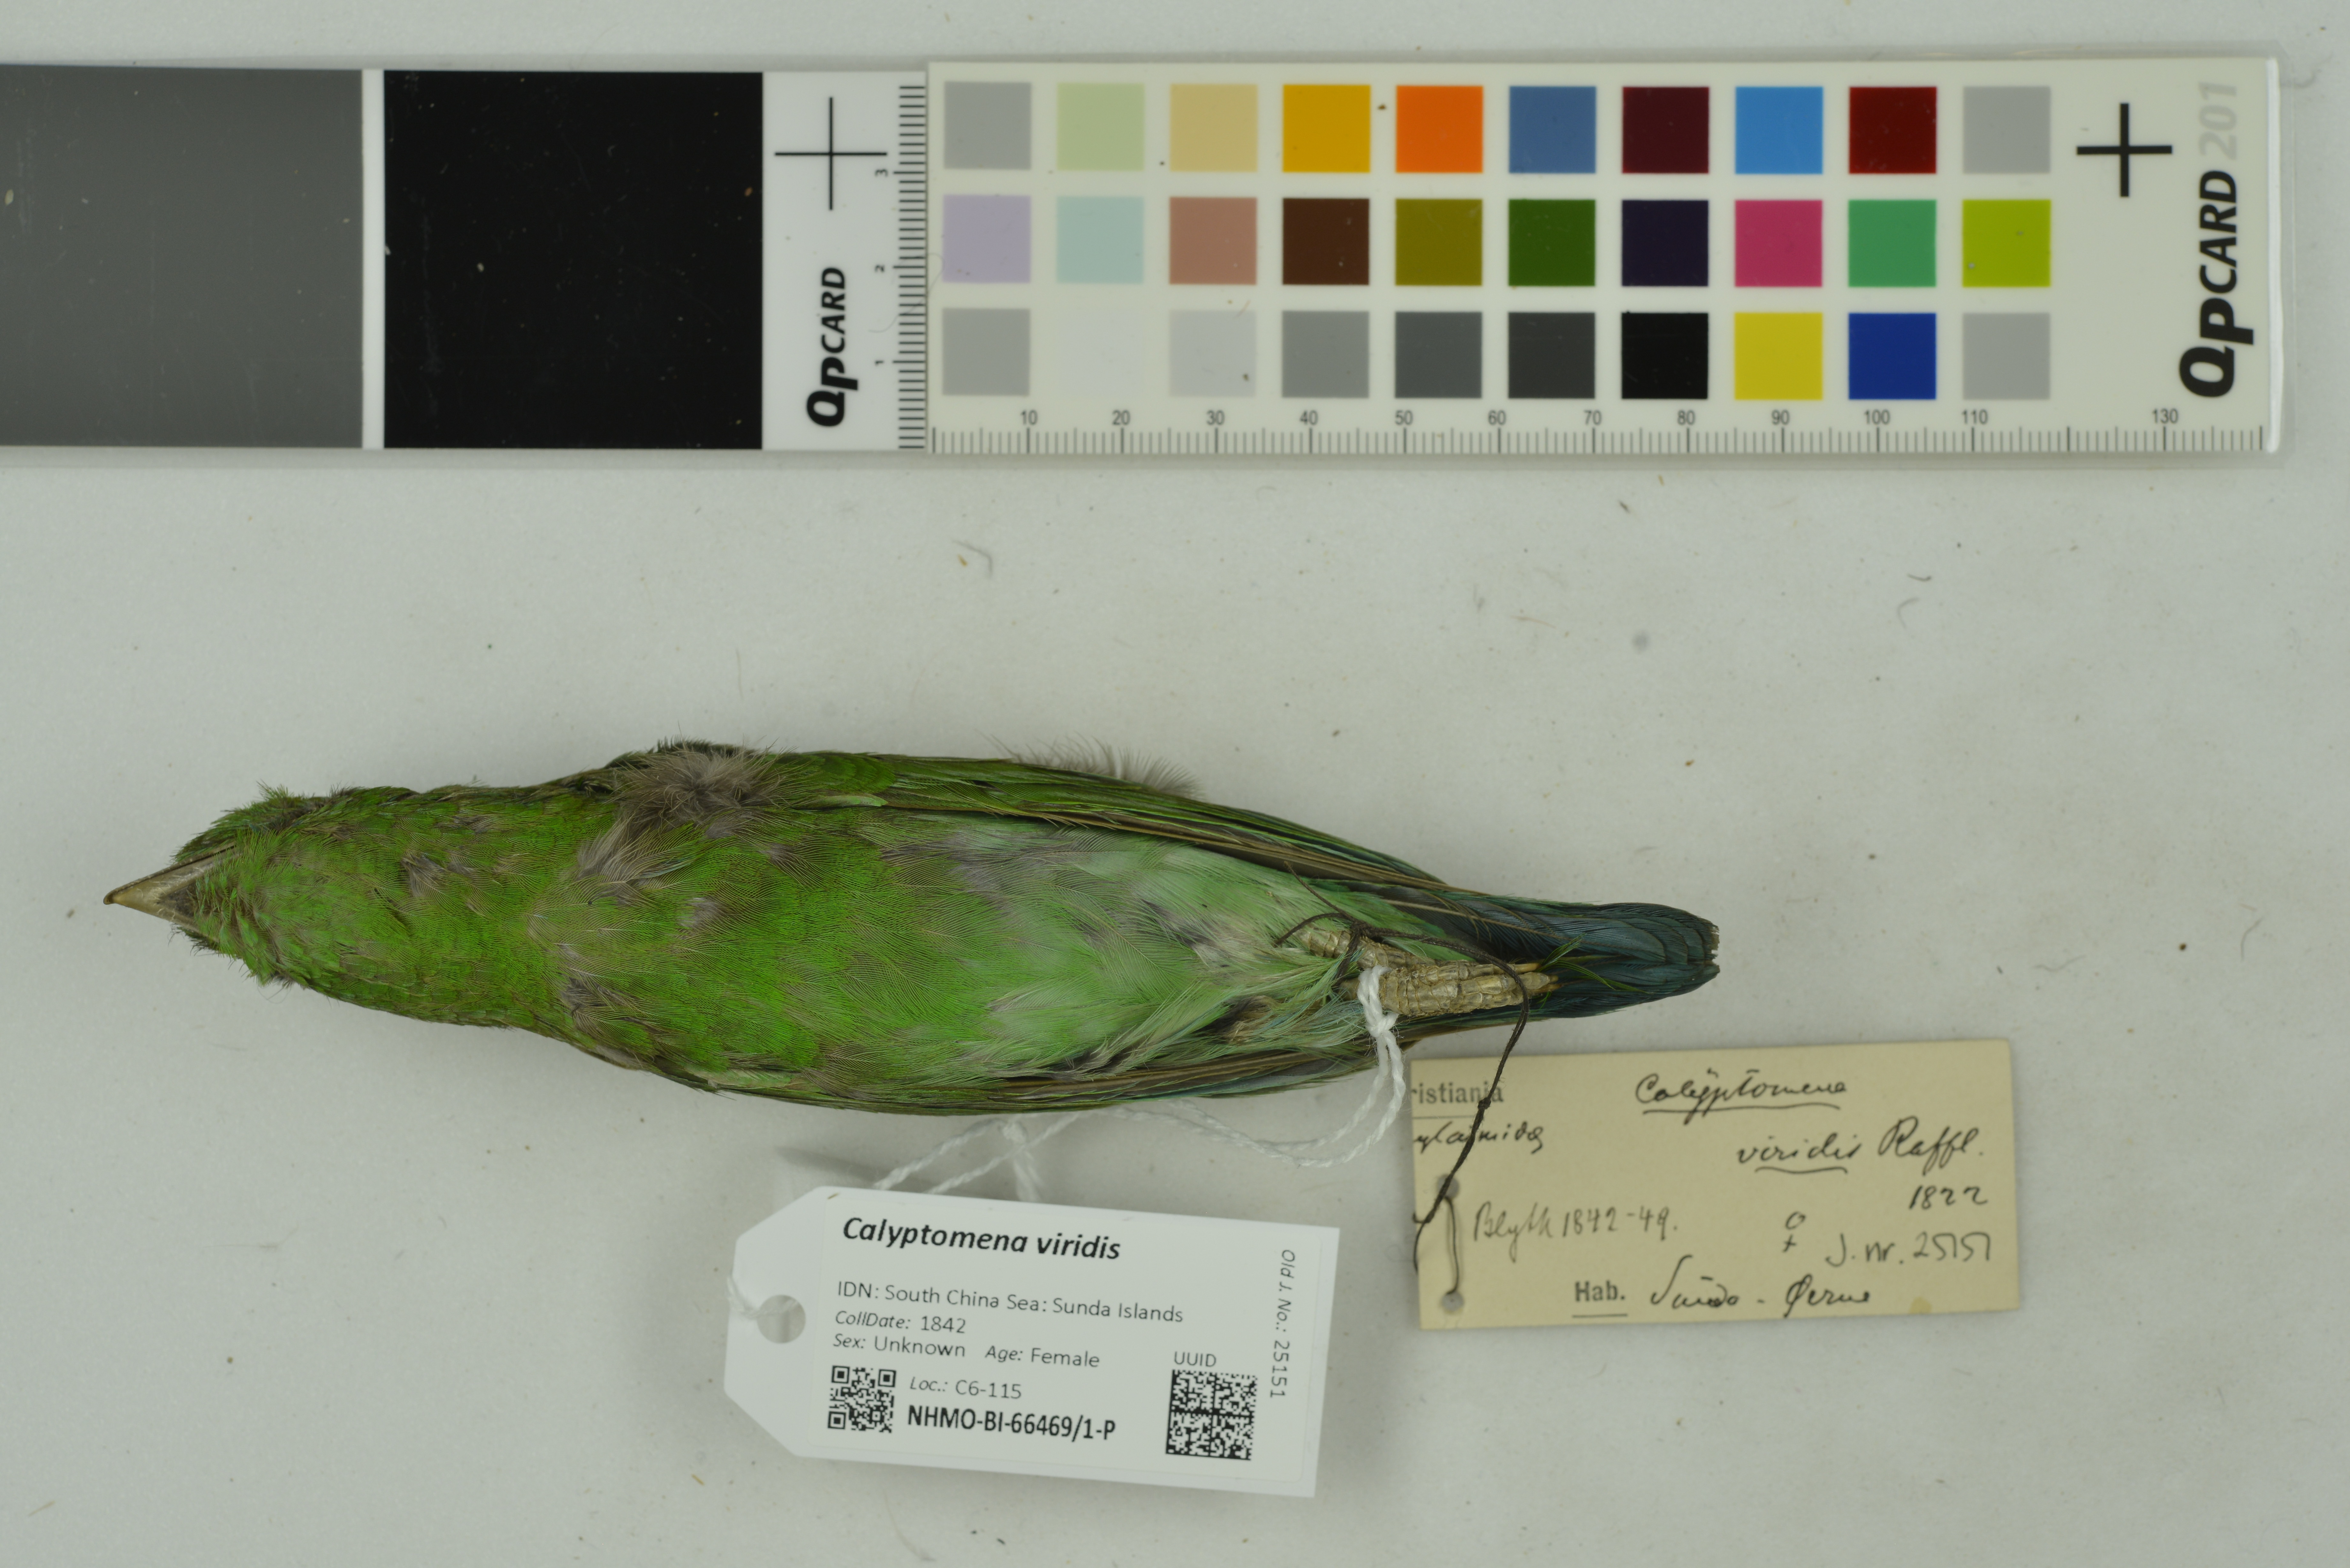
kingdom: Animalia
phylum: Chordata
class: Aves
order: Passeriformes
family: Eurylaimidae
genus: Calyptomena
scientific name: Calyptomena viridis
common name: Green broadbill
